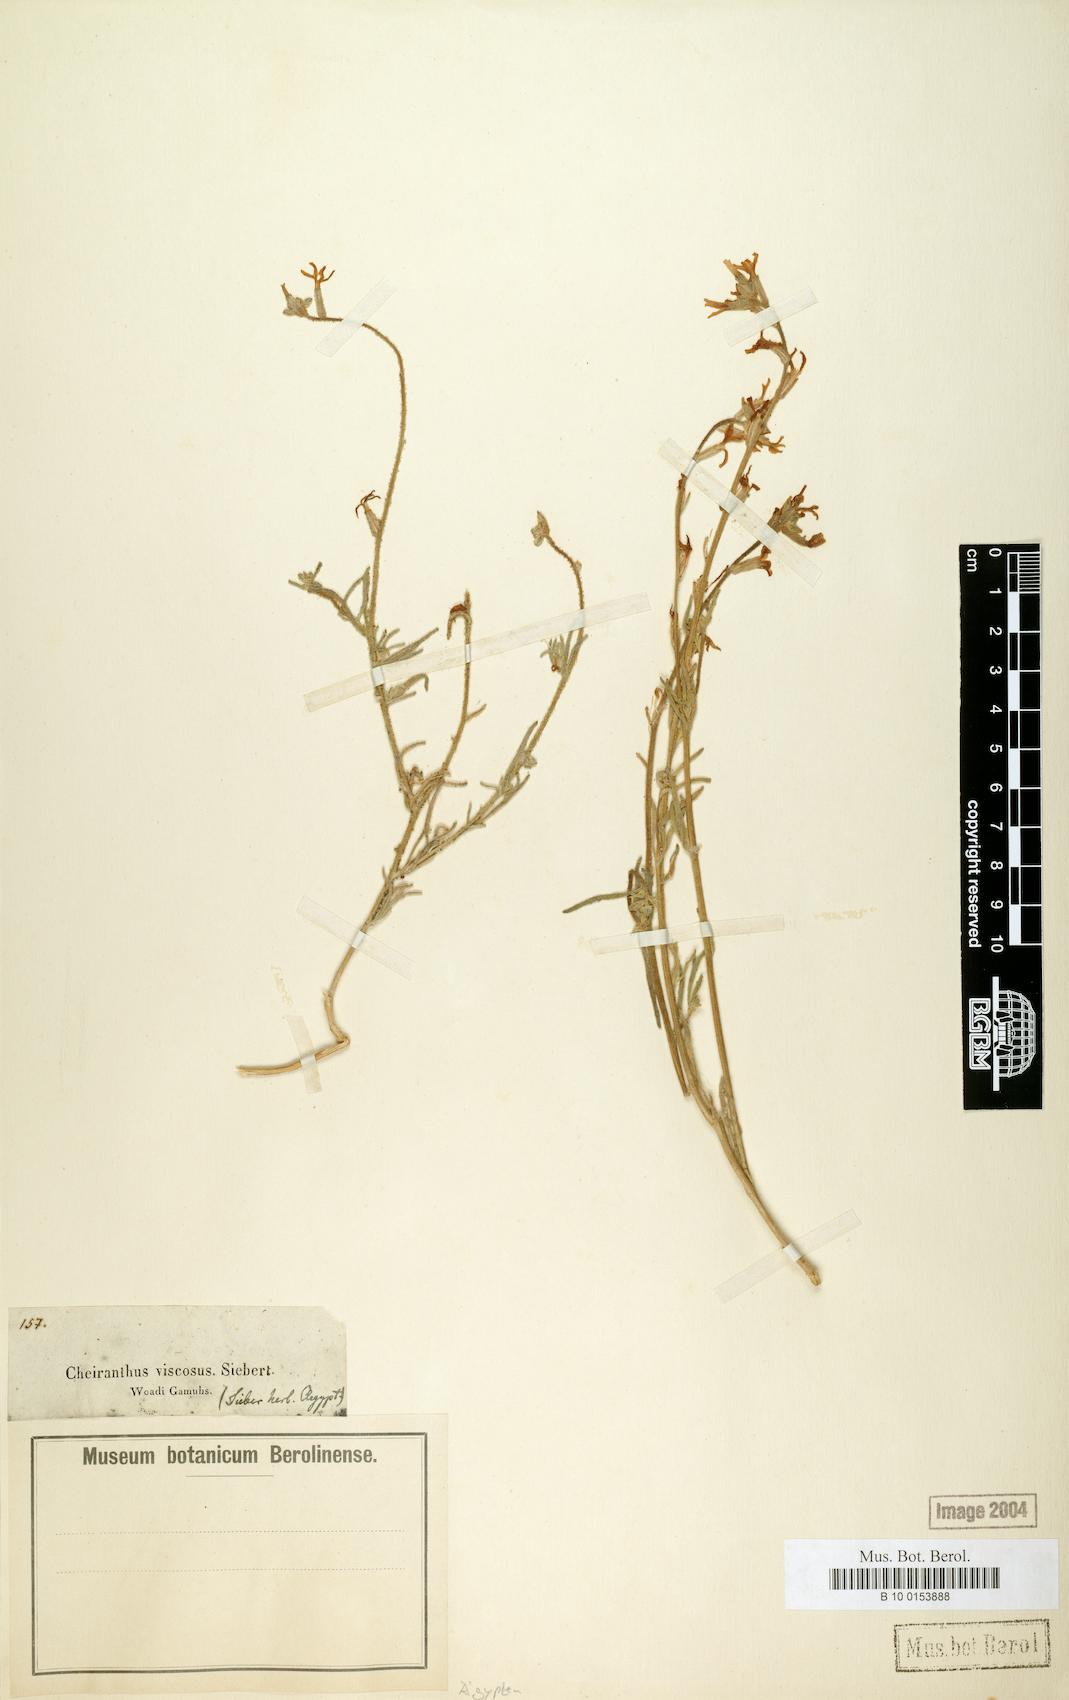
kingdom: Plantae
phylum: Tracheophyta
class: Magnoliopsida
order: Brassicales
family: Brassicaceae
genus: Matthiola
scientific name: Matthiola longipetala
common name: Night-scented stock
